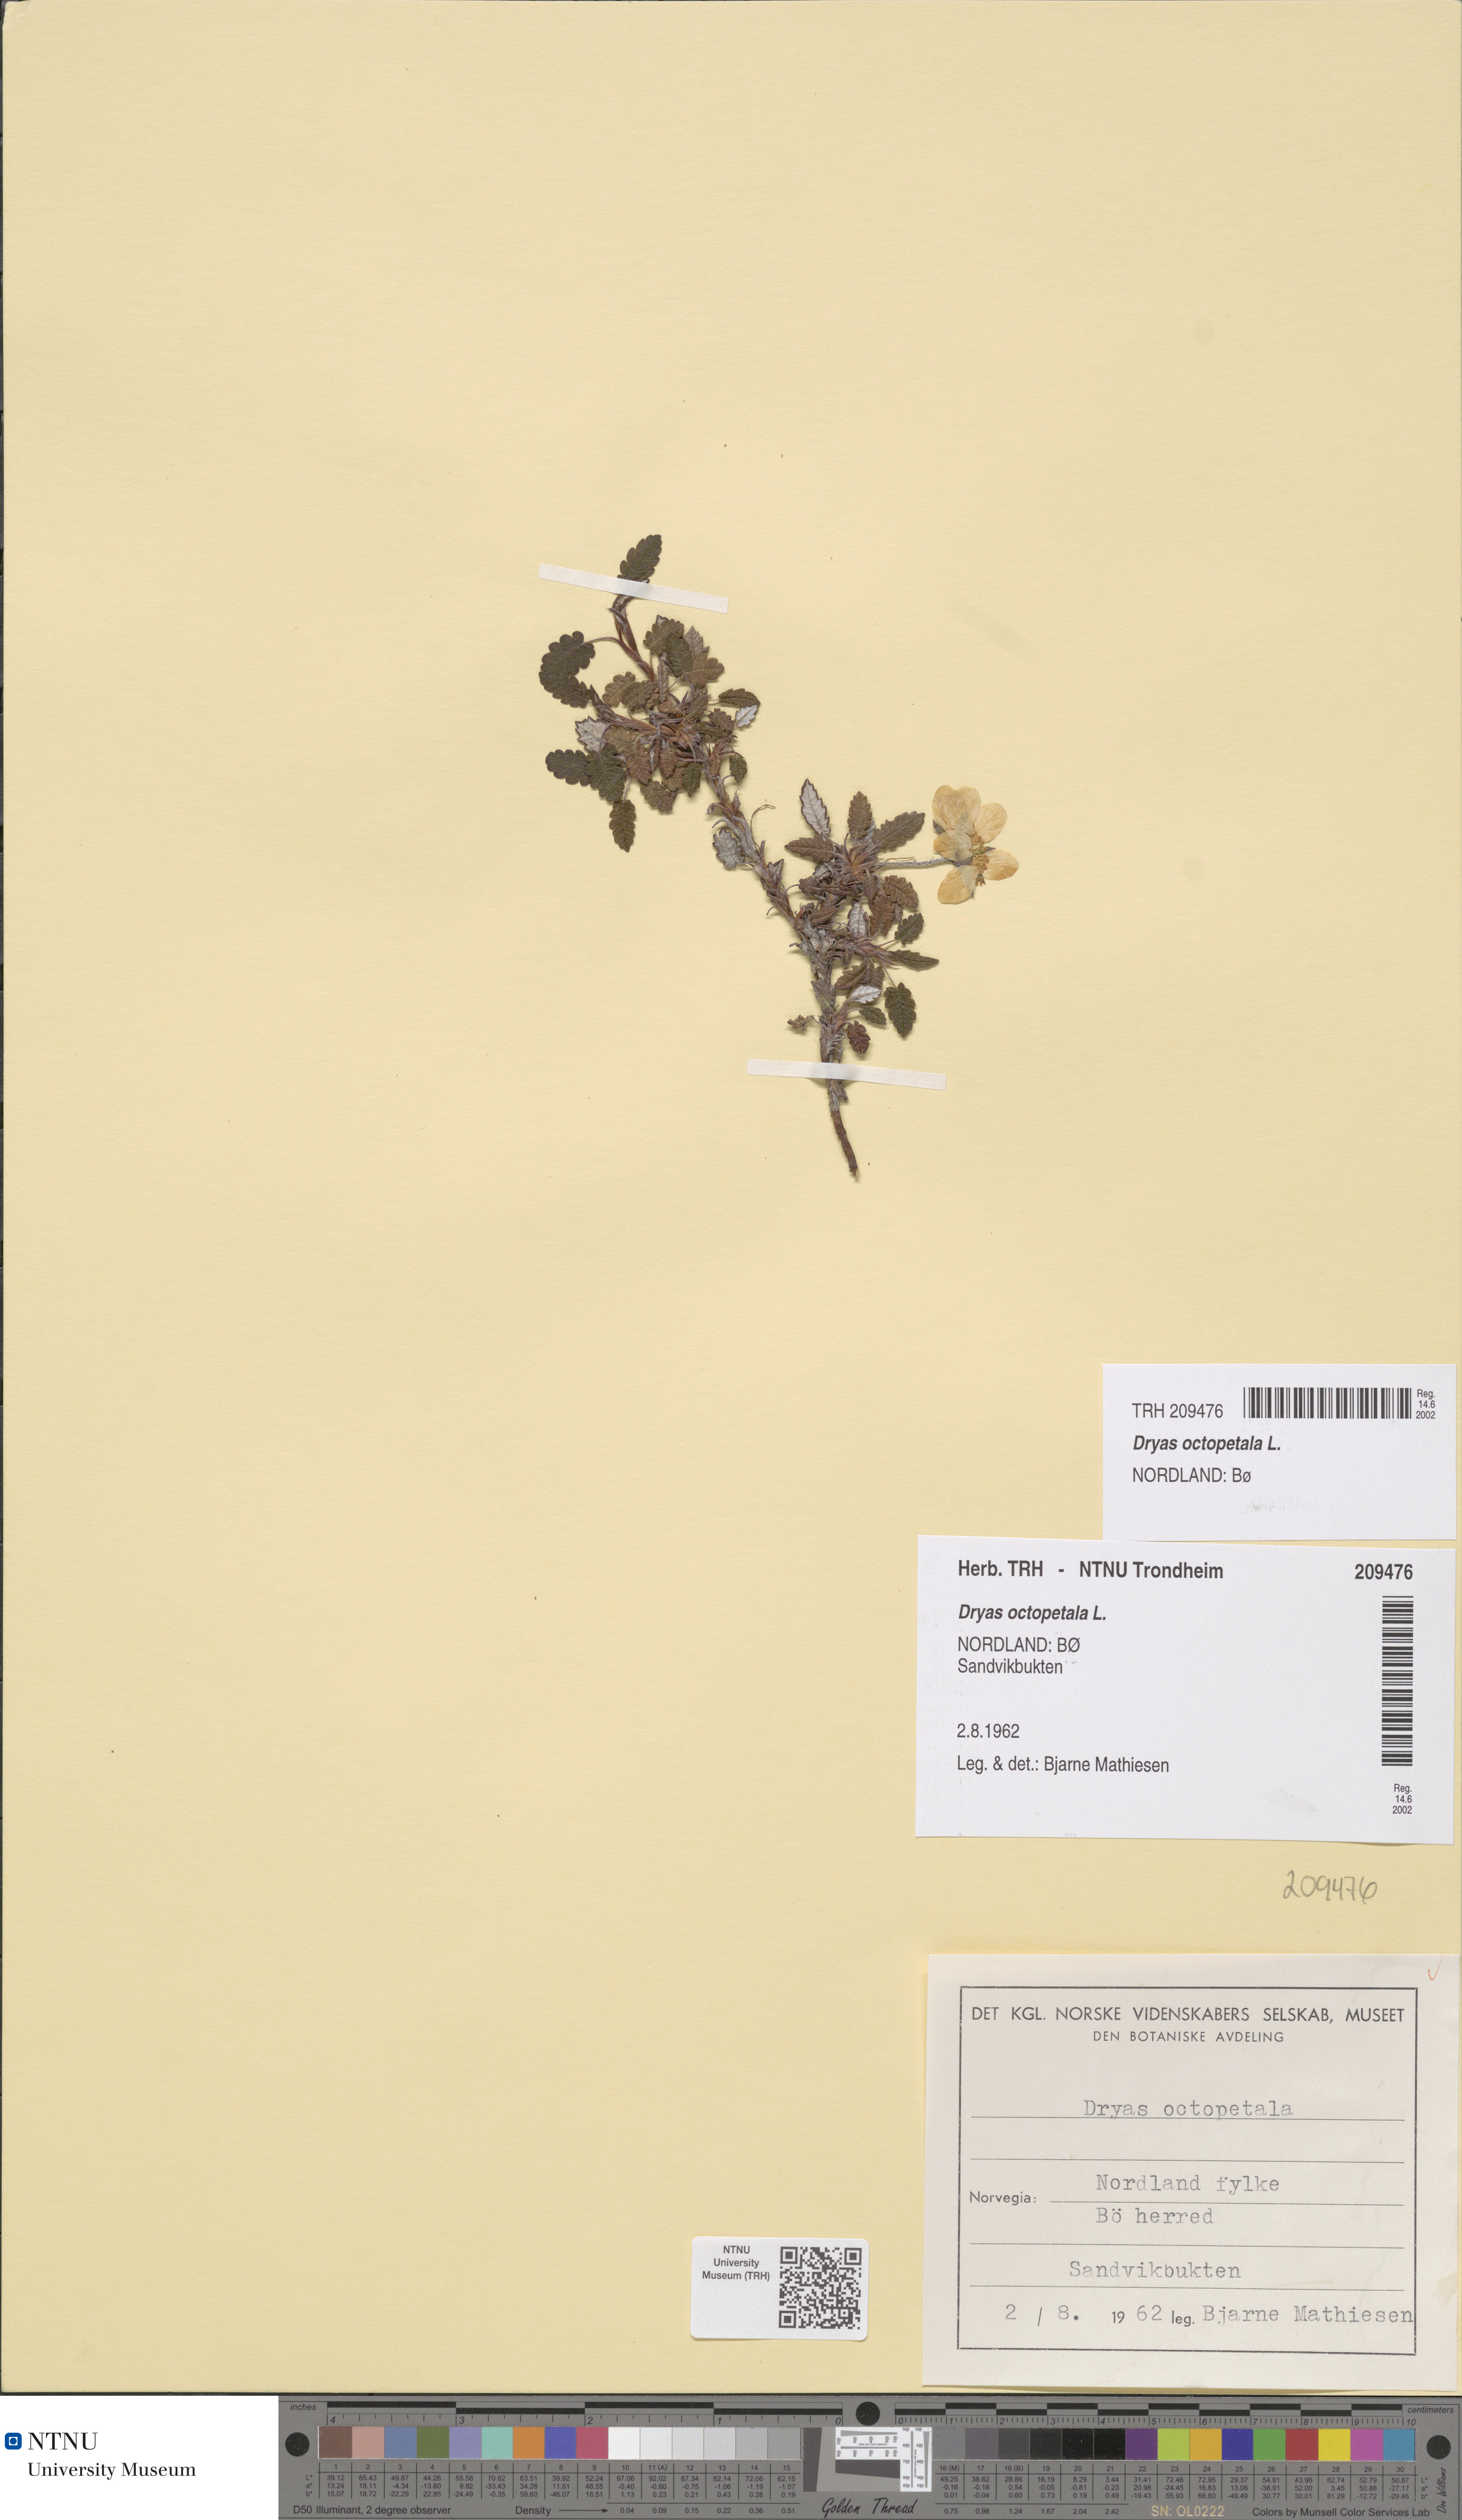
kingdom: Plantae
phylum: Tracheophyta
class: Magnoliopsida
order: Rosales
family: Rosaceae
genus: Dryas
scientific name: Dryas octopetala
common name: Eight-petal mountain-avens
